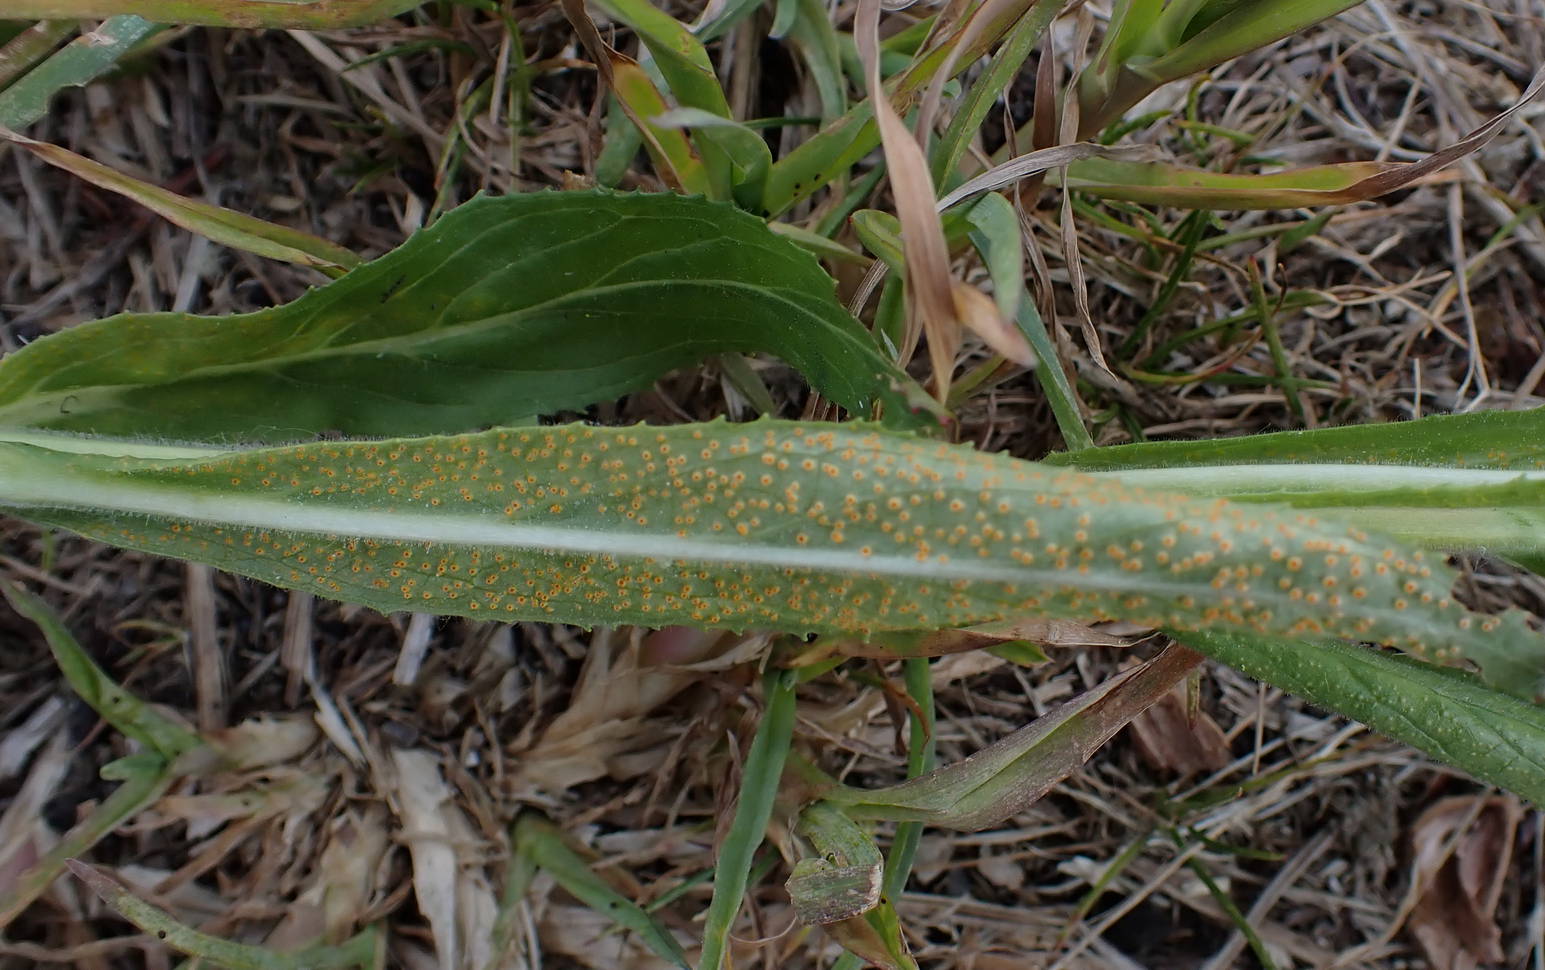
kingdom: Fungi
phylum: Basidiomycota
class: Pucciniomycetes
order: Pucciniales
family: Pucciniaceae
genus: Puccinia
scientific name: Puccinia pulverulenta
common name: dueurt-tvecellerust
